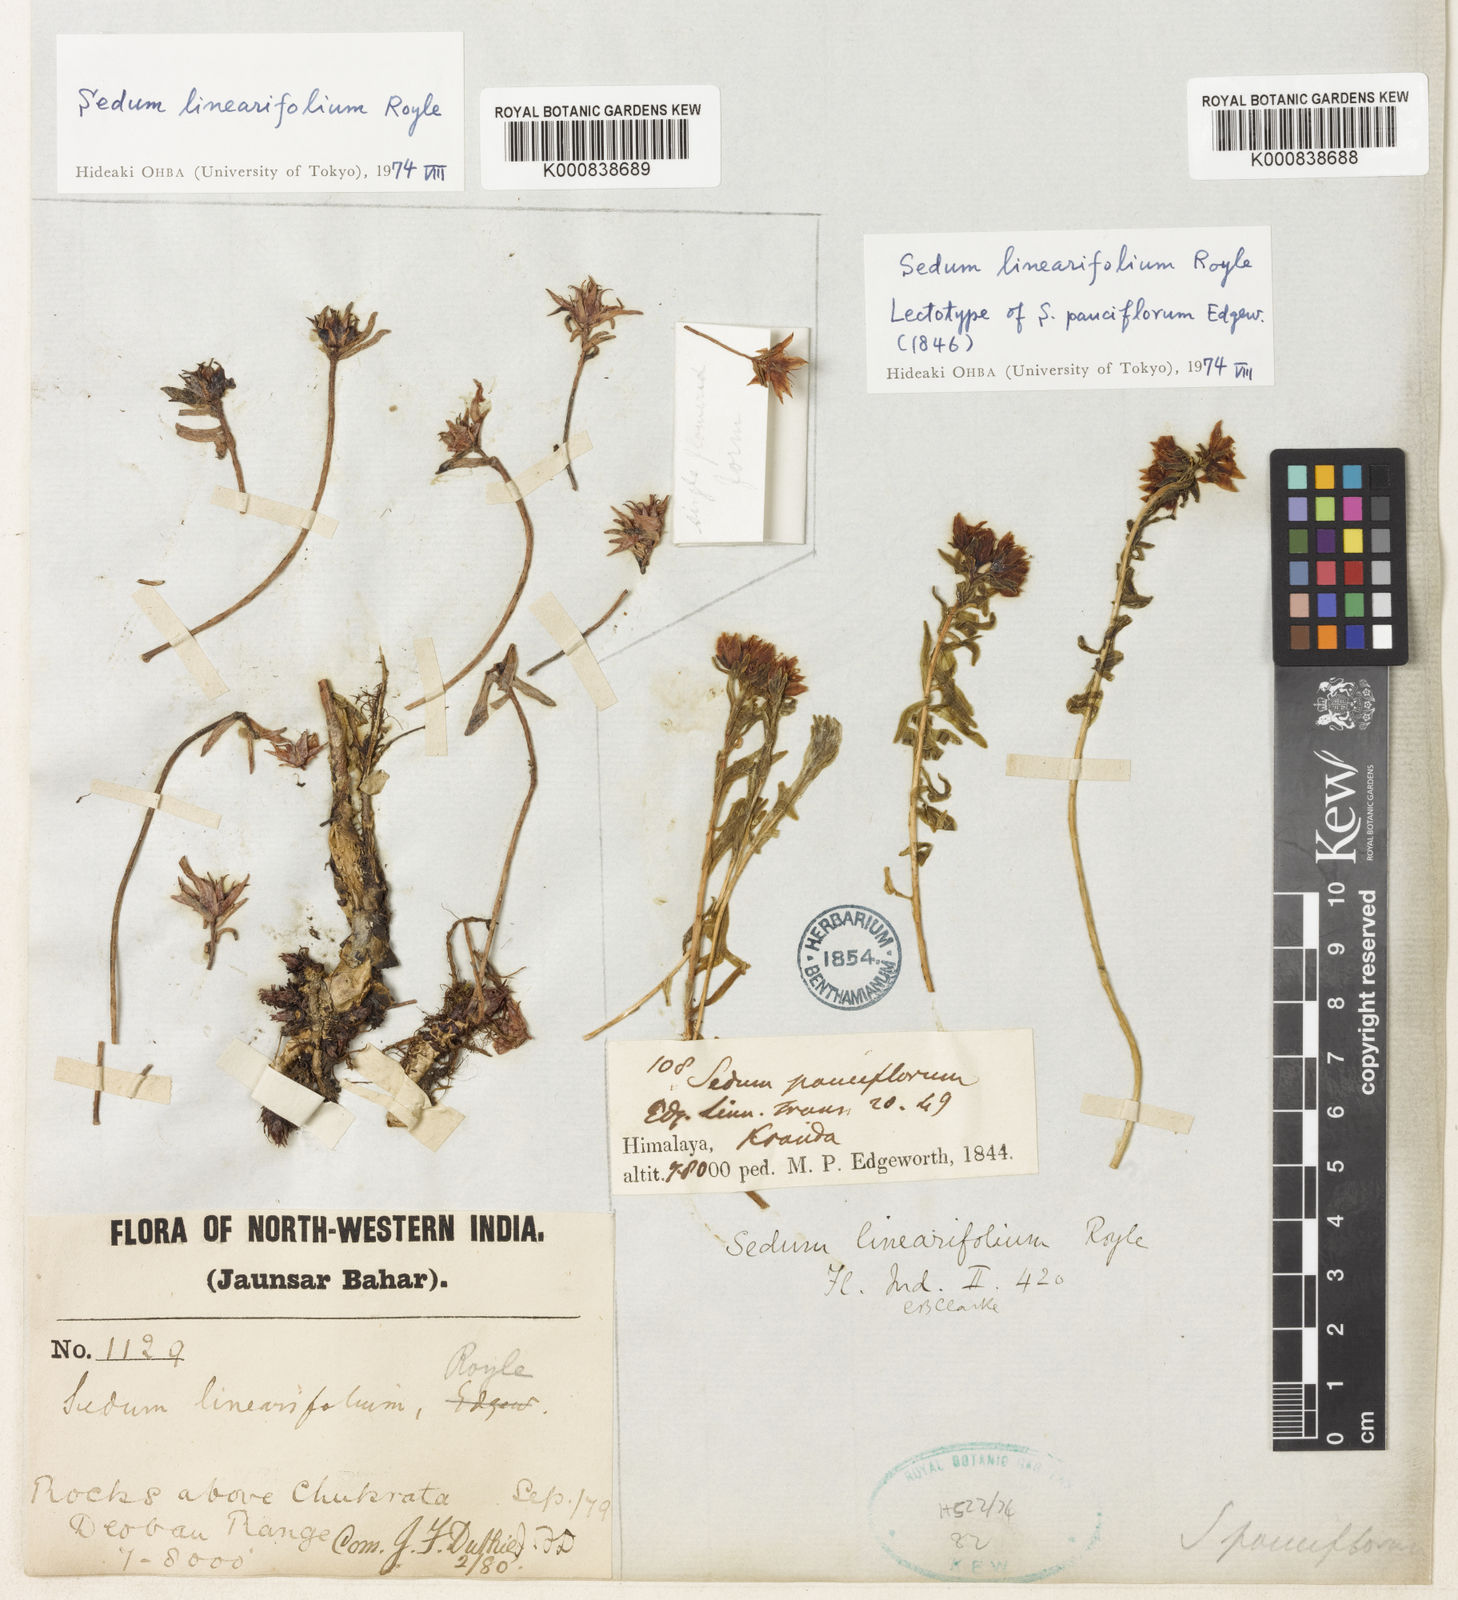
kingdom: Plantae
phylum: Tracheophyta
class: Magnoliopsida
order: Saxifragales
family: Crassulaceae
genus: Rhodiola
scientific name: Rhodiola sinuata
